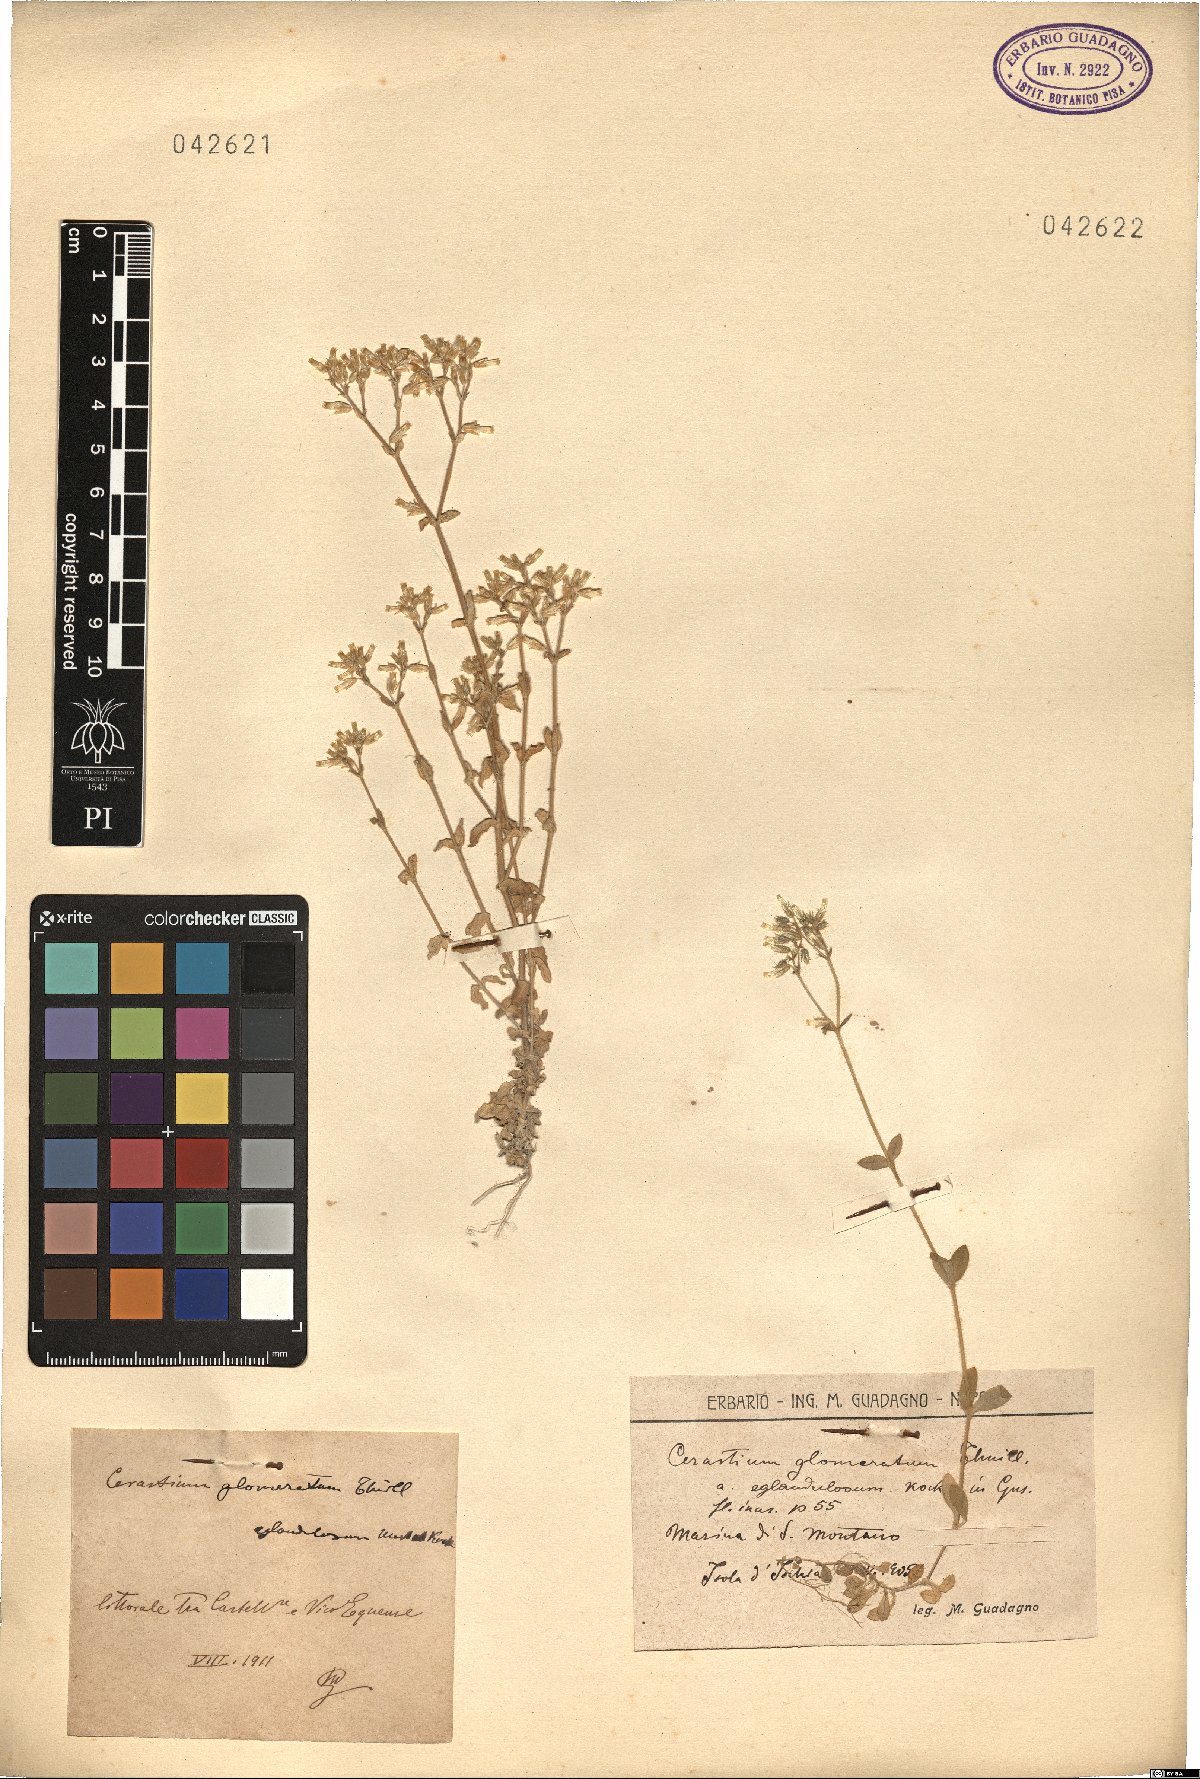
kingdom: Plantae
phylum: Tracheophyta
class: Magnoliopsida
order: Caryophyllales
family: Caryophyllaceae
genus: Cerastium
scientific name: Cerastium glomeratum
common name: Sticky chickweed
